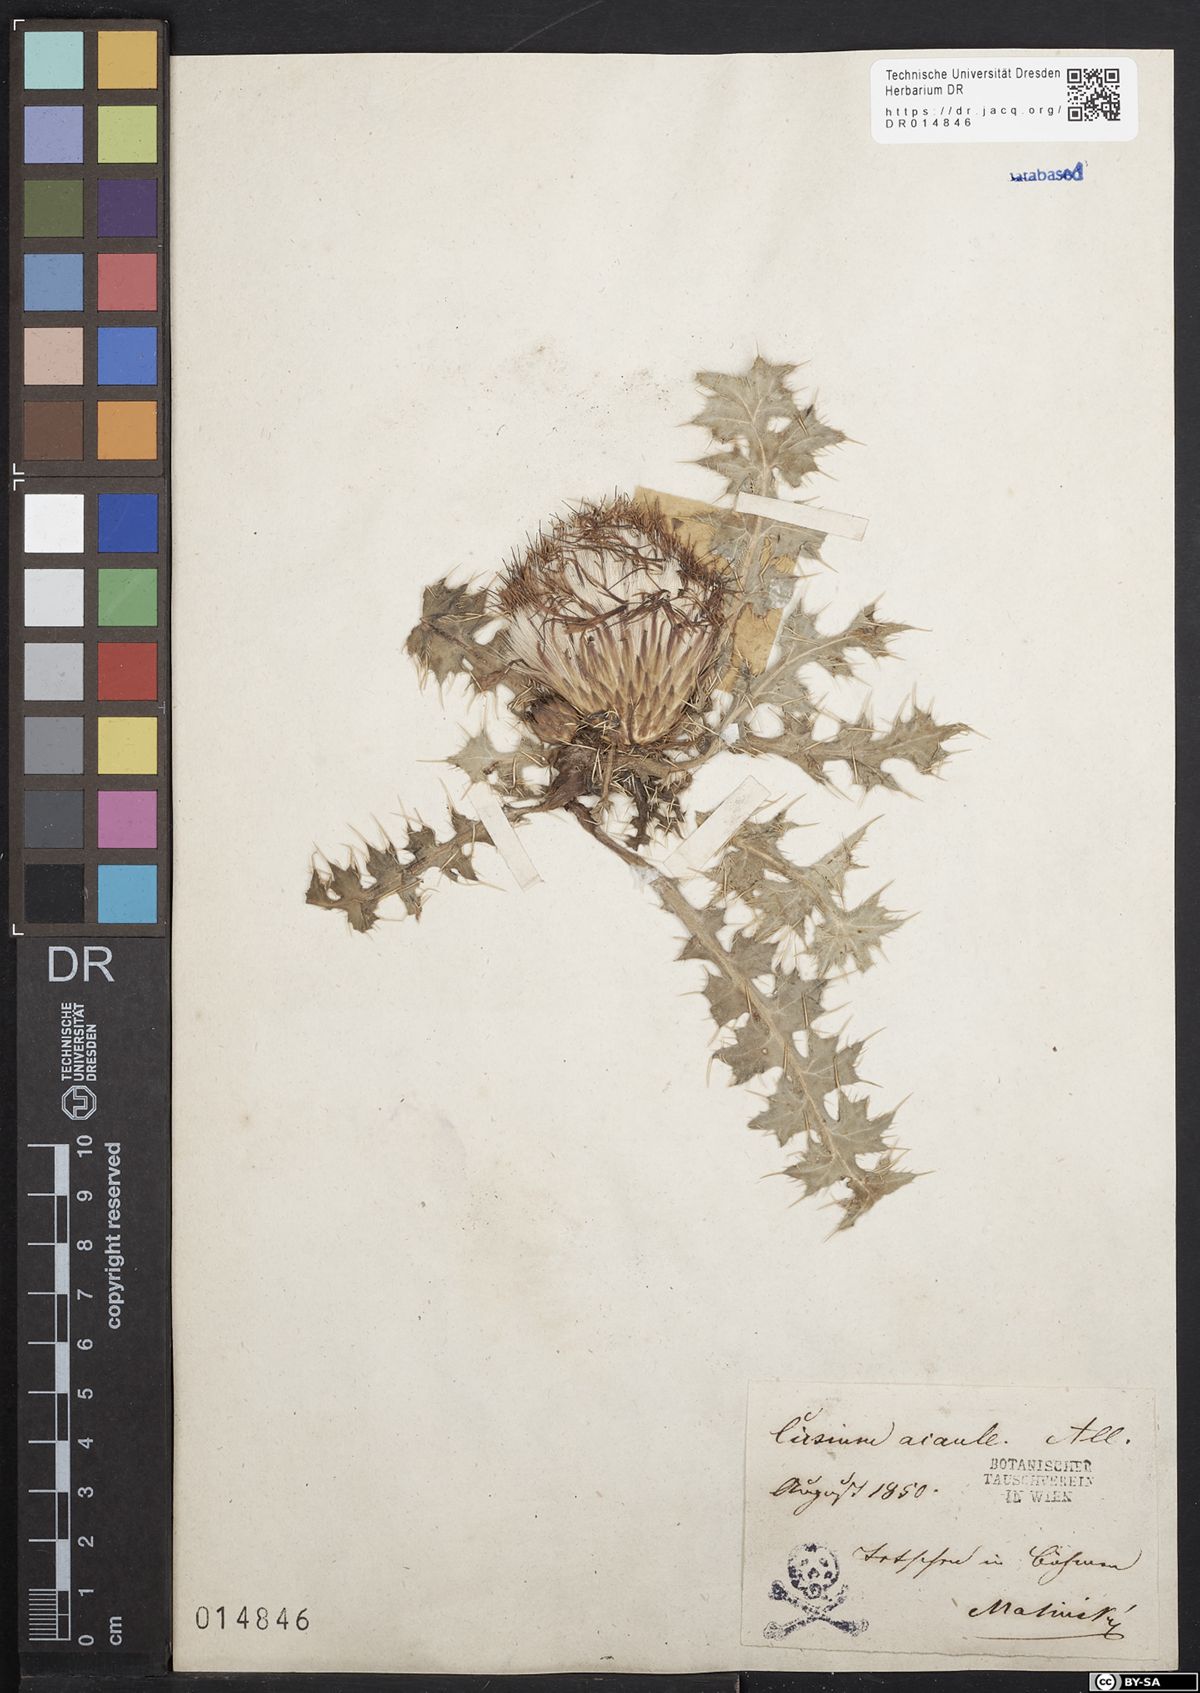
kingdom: Plantae
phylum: Tracheophyta
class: Magnoliopsida
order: Asterales
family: Asteraceae
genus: Cirsium
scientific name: Cirsium acaule
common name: Dwarf thistle
